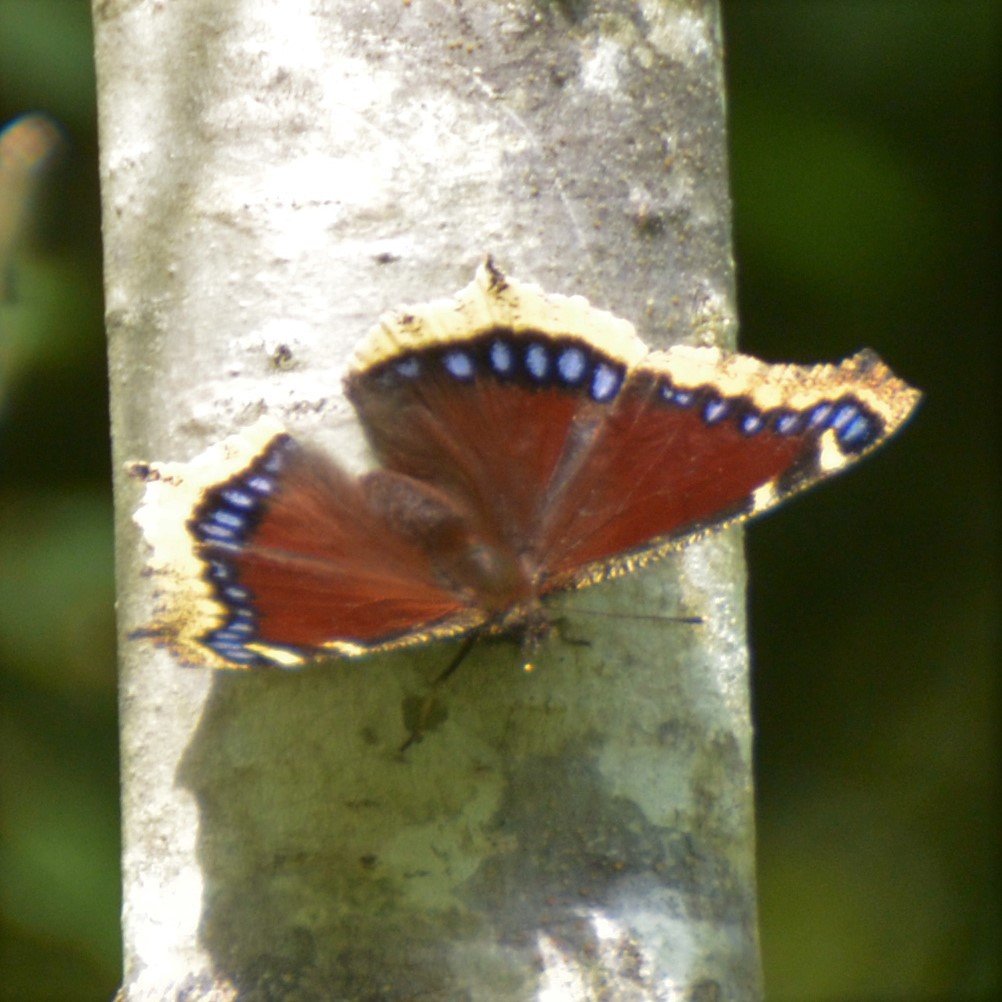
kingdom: Animalia
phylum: Arthropoda
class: Insecta
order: Lepidoptera
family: Nymphalidae
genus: Nymphalis
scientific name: Nymphalis antiopa
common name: Mourning Cloak
